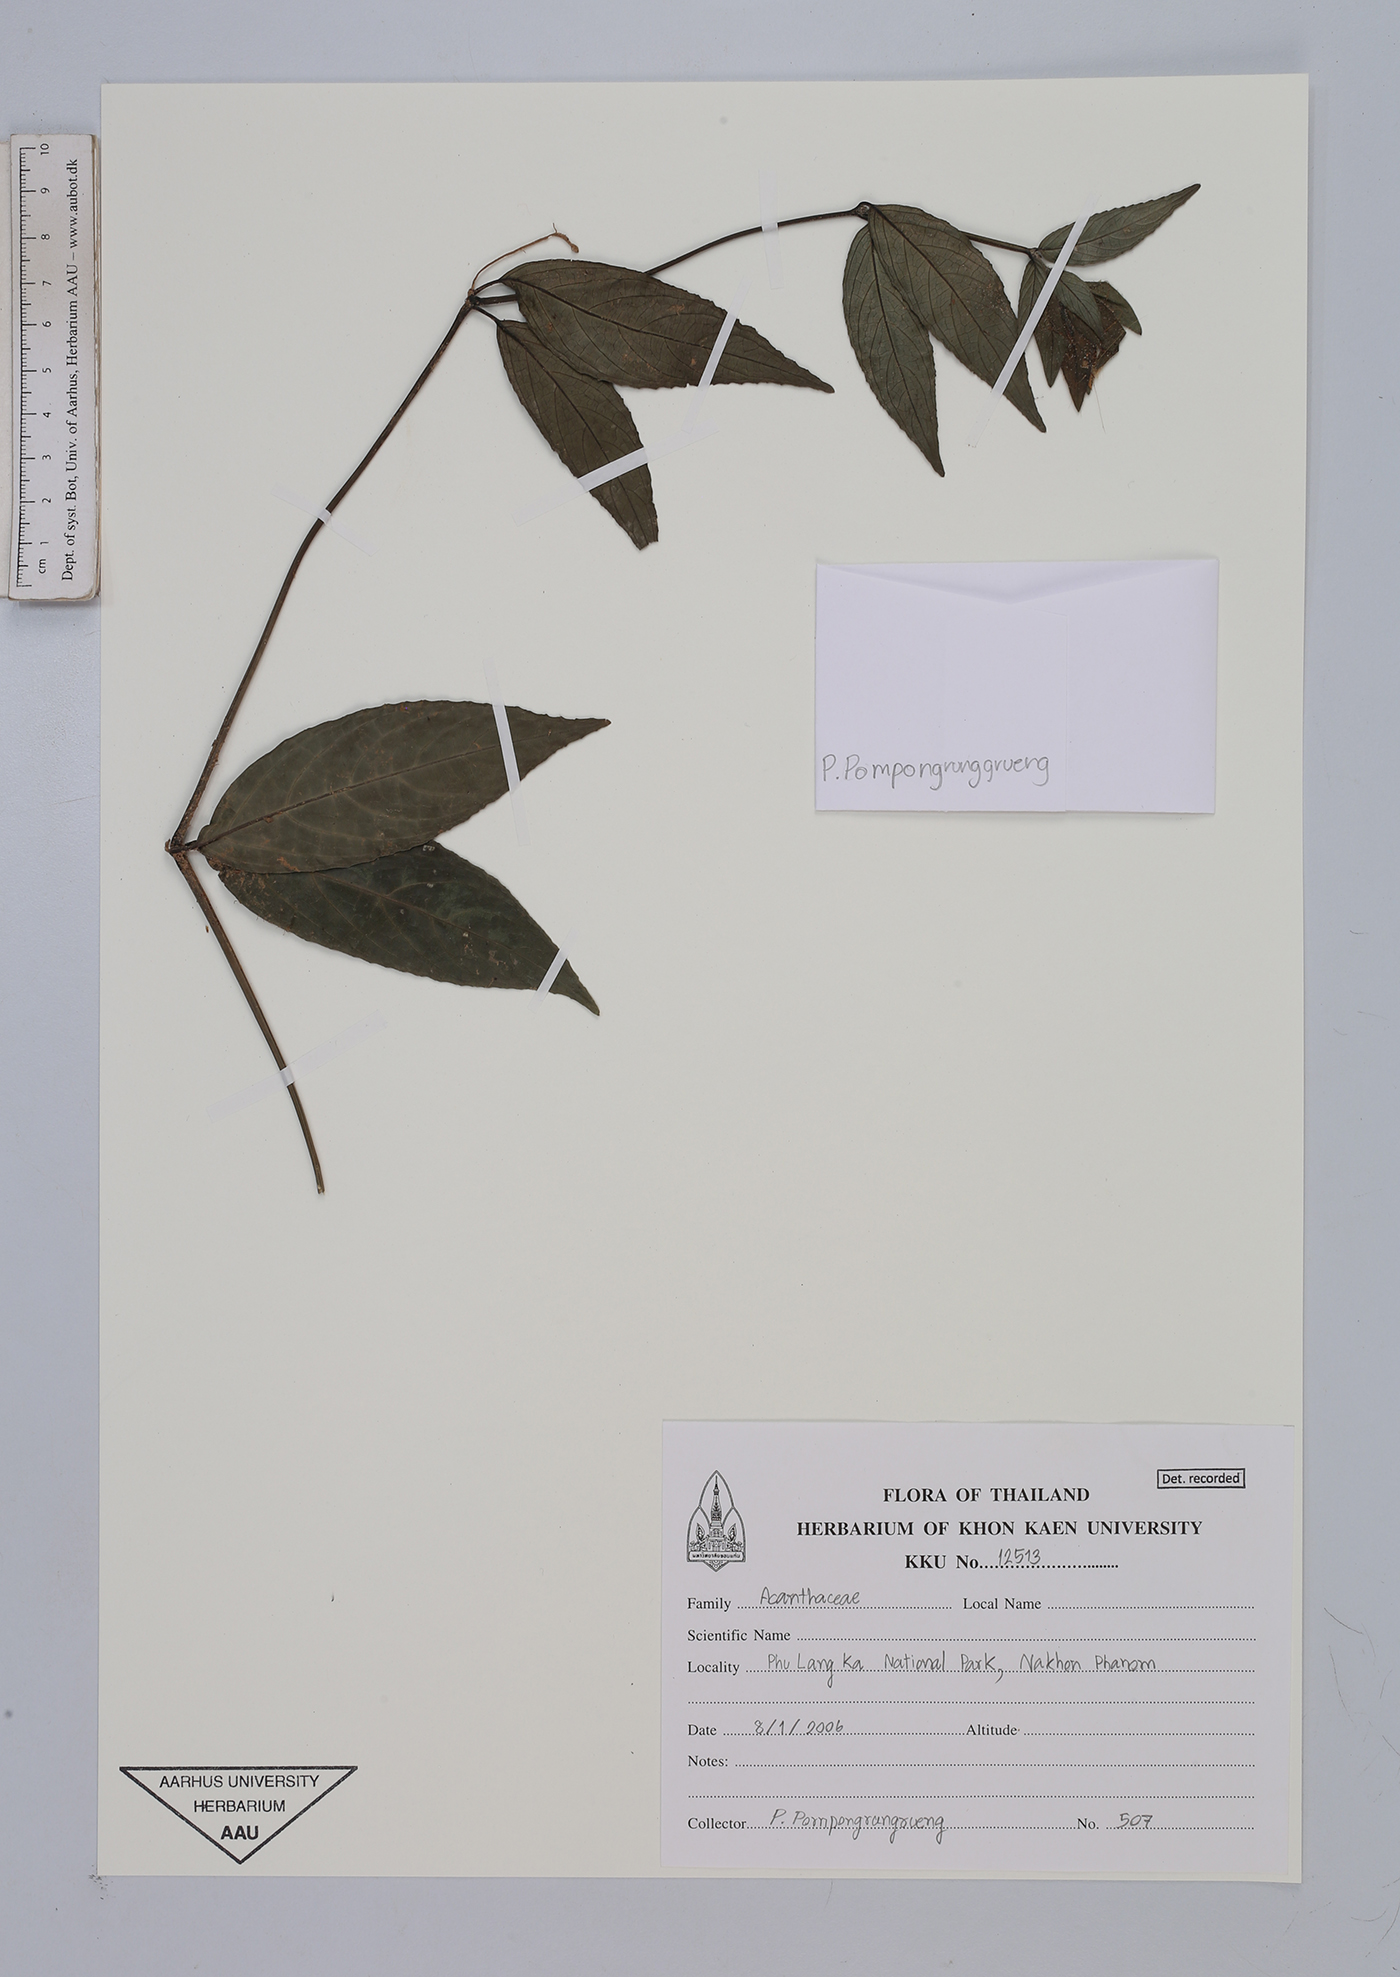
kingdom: Plantae
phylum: Tracheophyta
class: Magnoliopsida
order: Lamiales
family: Acanthaceae
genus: Strobilanthes
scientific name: Strobilanthes
